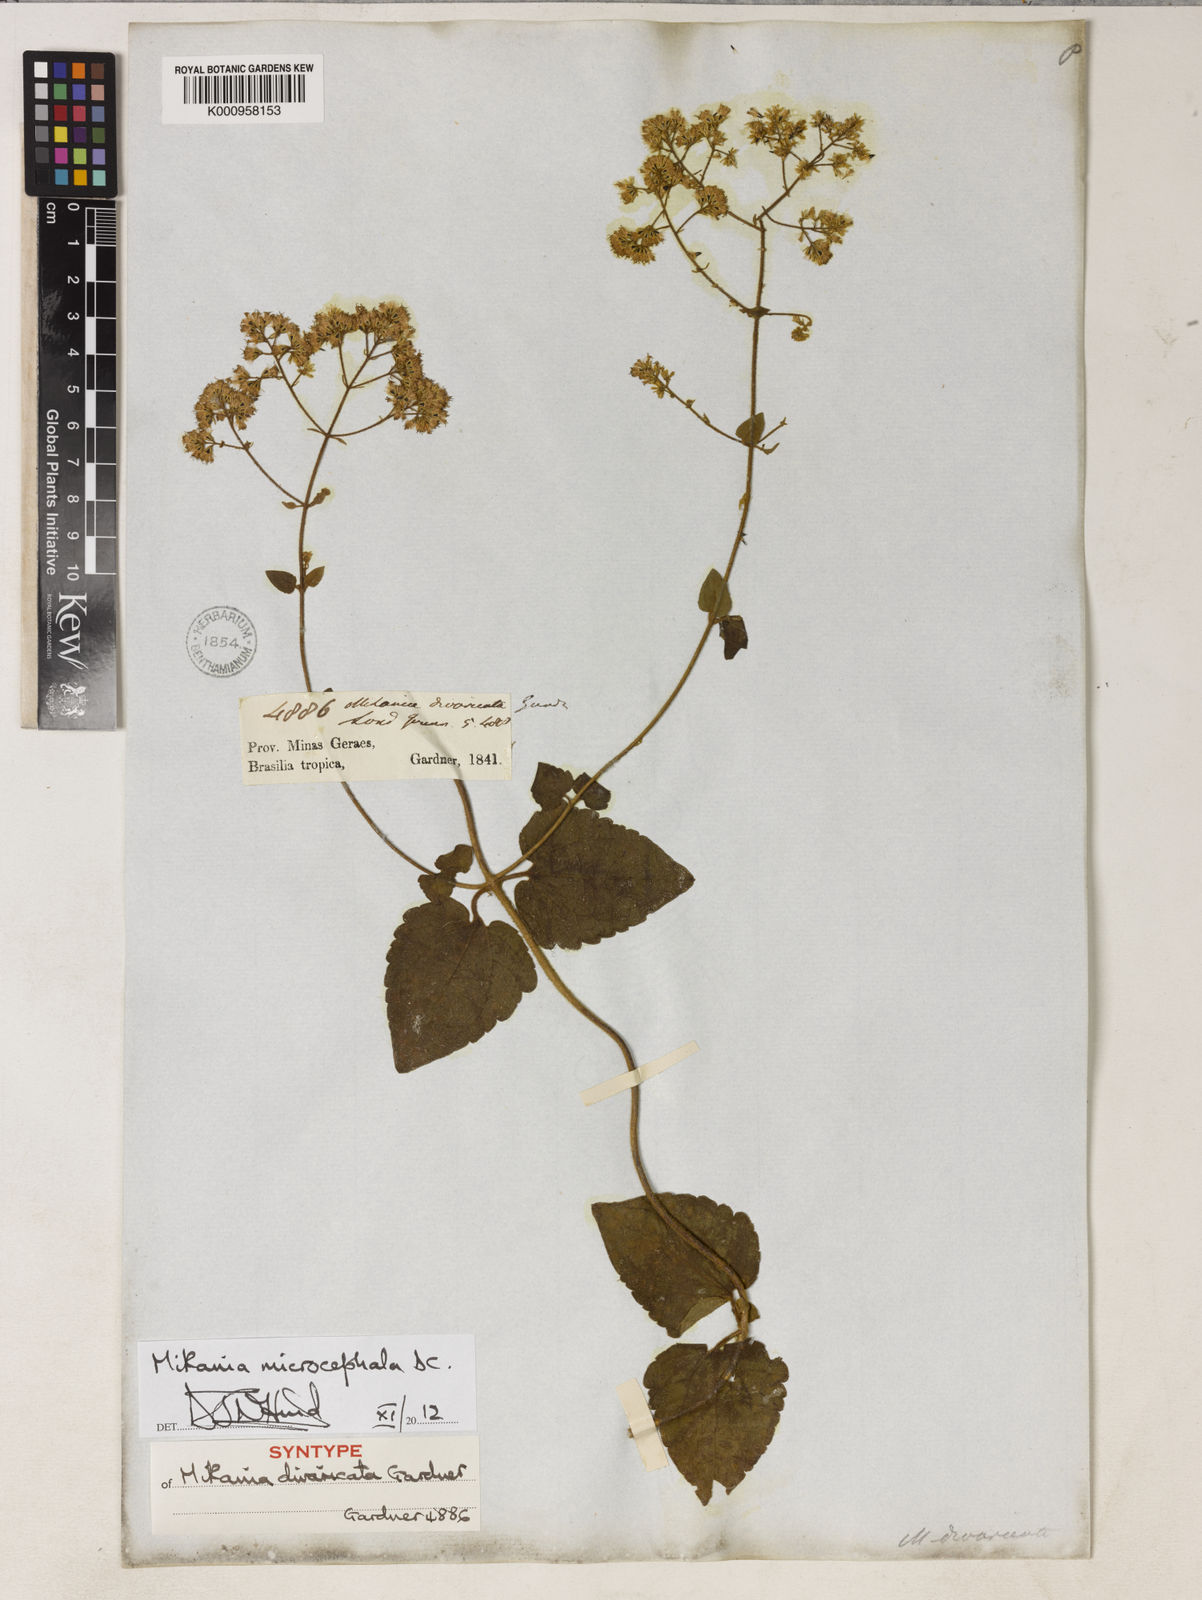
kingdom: Plantae
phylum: Tracheophyta
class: Magnoliopsida
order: Asterales
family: Asteraceae
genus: Mikania
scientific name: Mikania microcephala
